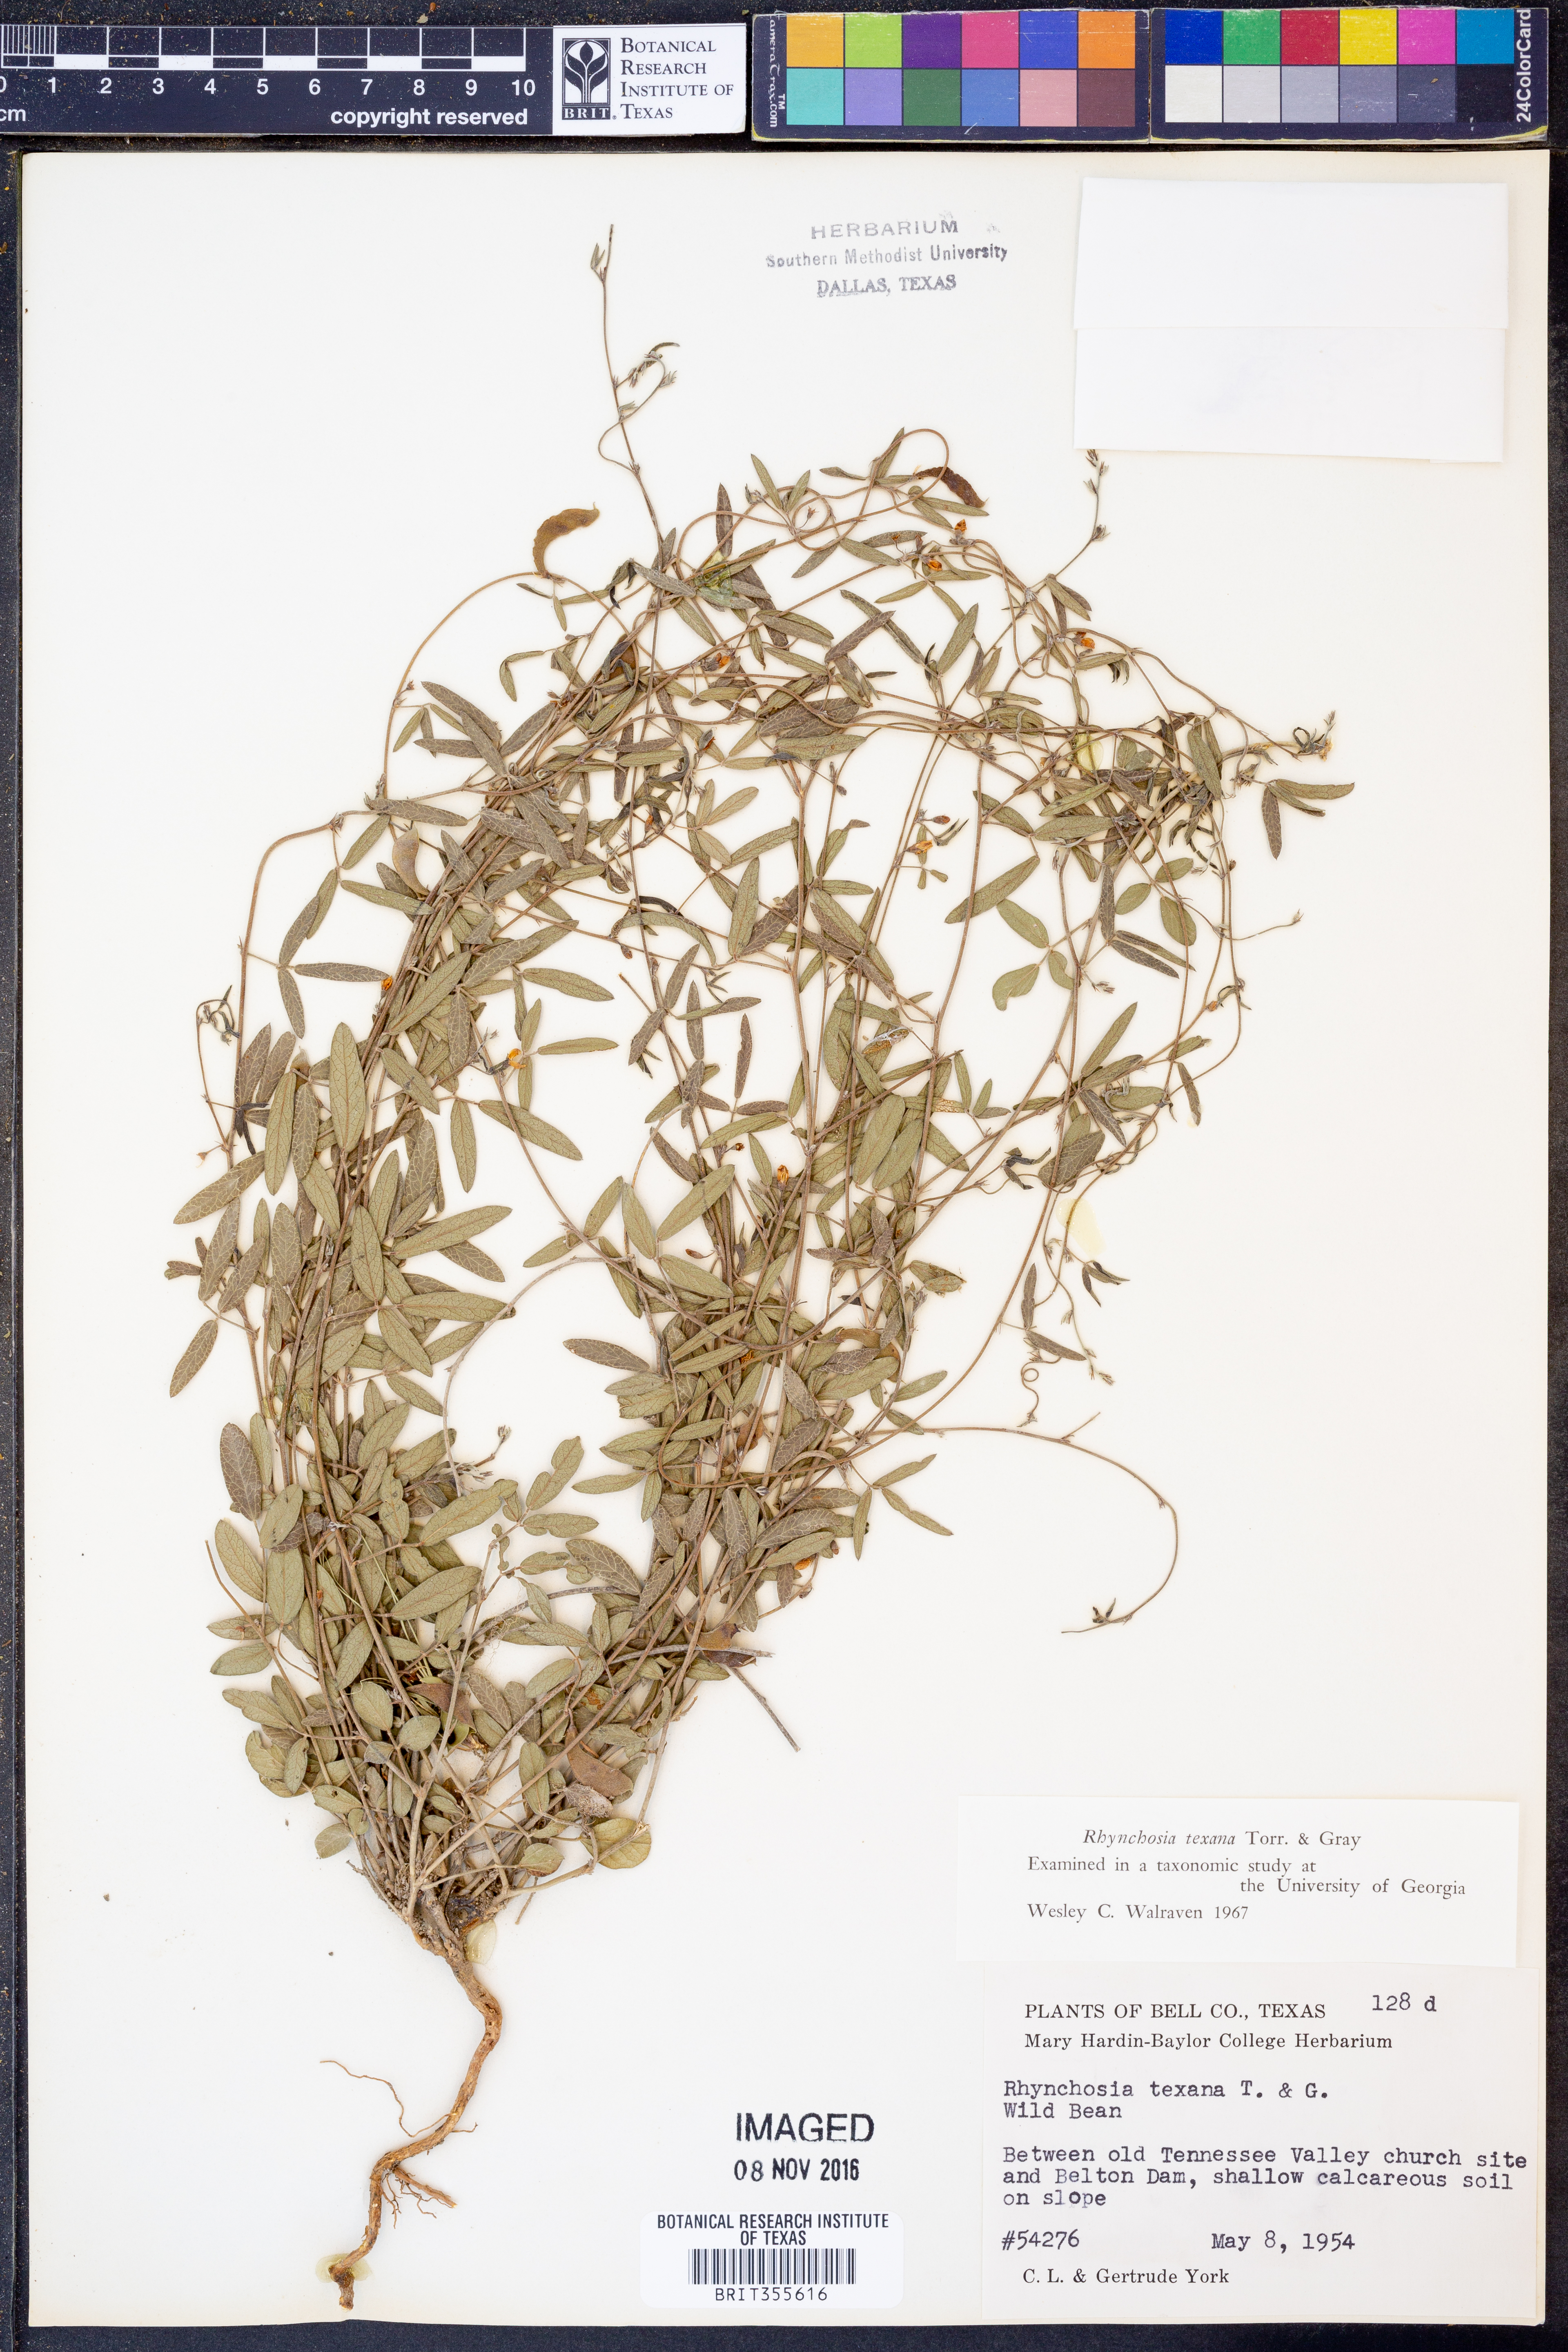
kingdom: Plantae
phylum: Tracheophyta
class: Magnoliopsida
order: Fabales
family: Fabaceae
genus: Rhynchosia
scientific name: Rhynchosia senna
